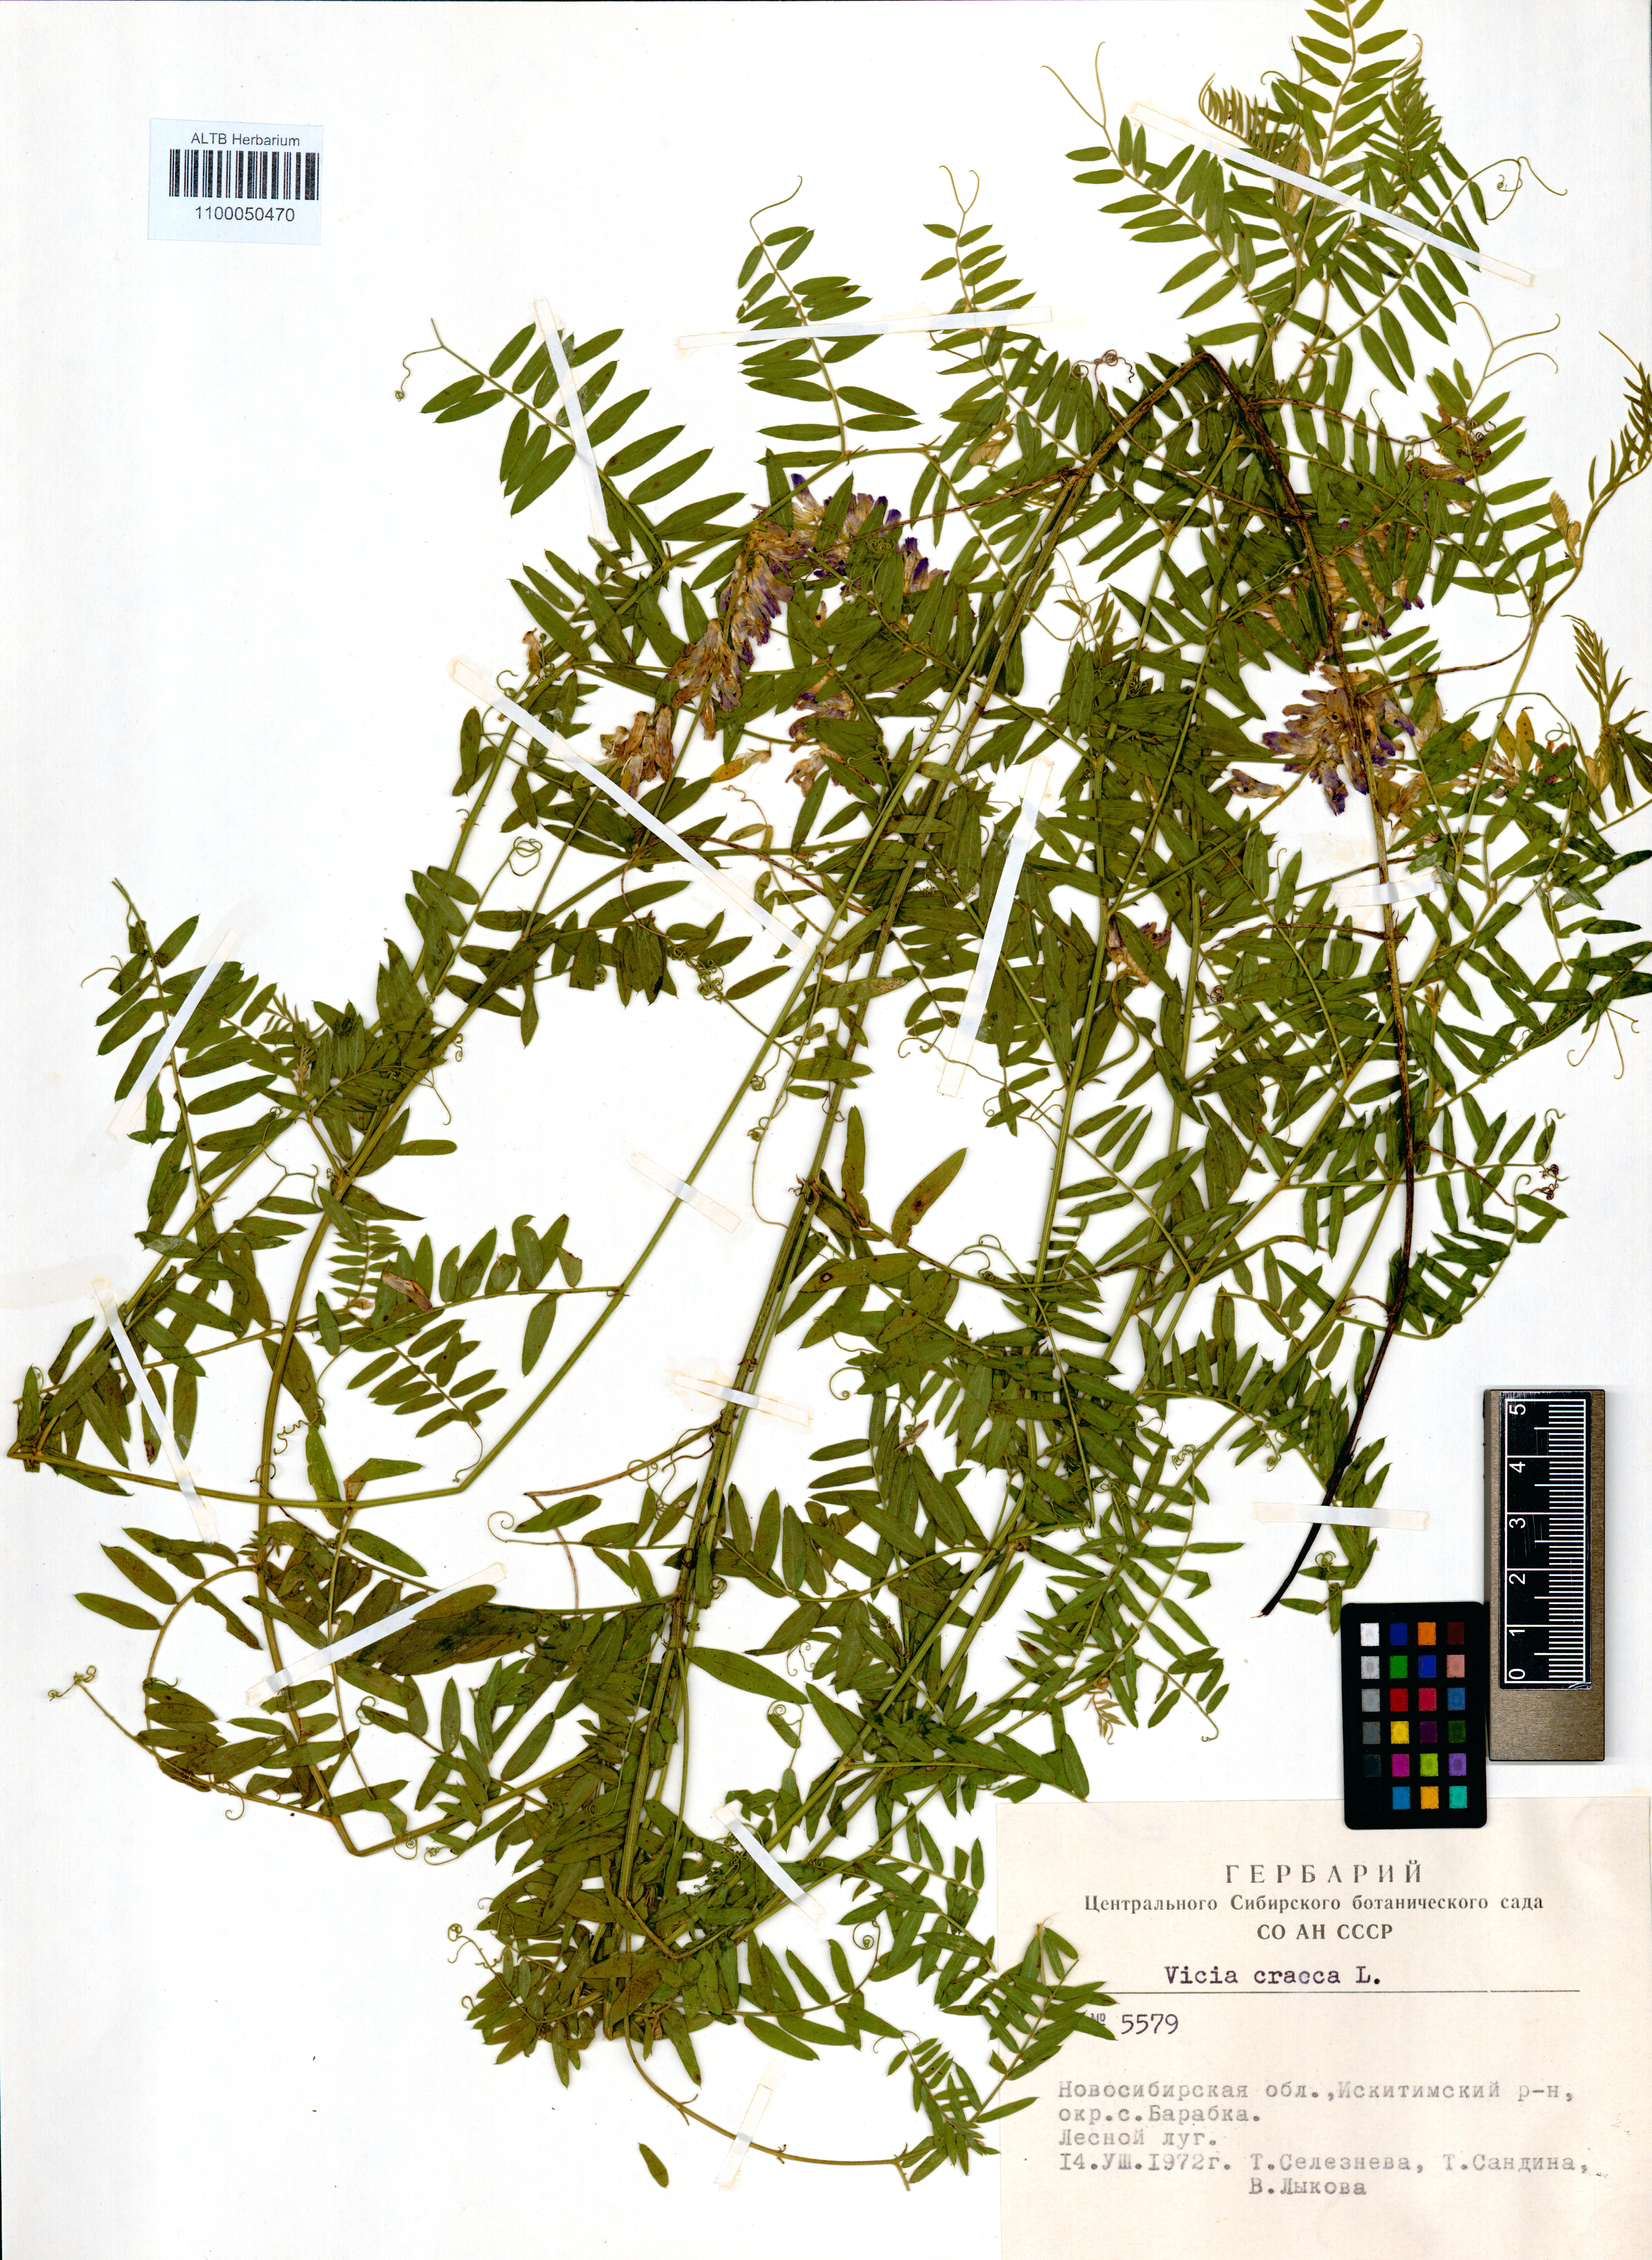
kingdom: Plantae
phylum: Tracheophyta
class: Magnoliopsida
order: Fabales
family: Fabaceae
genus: Vicia
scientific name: Vicia cracca
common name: Bird vetch
